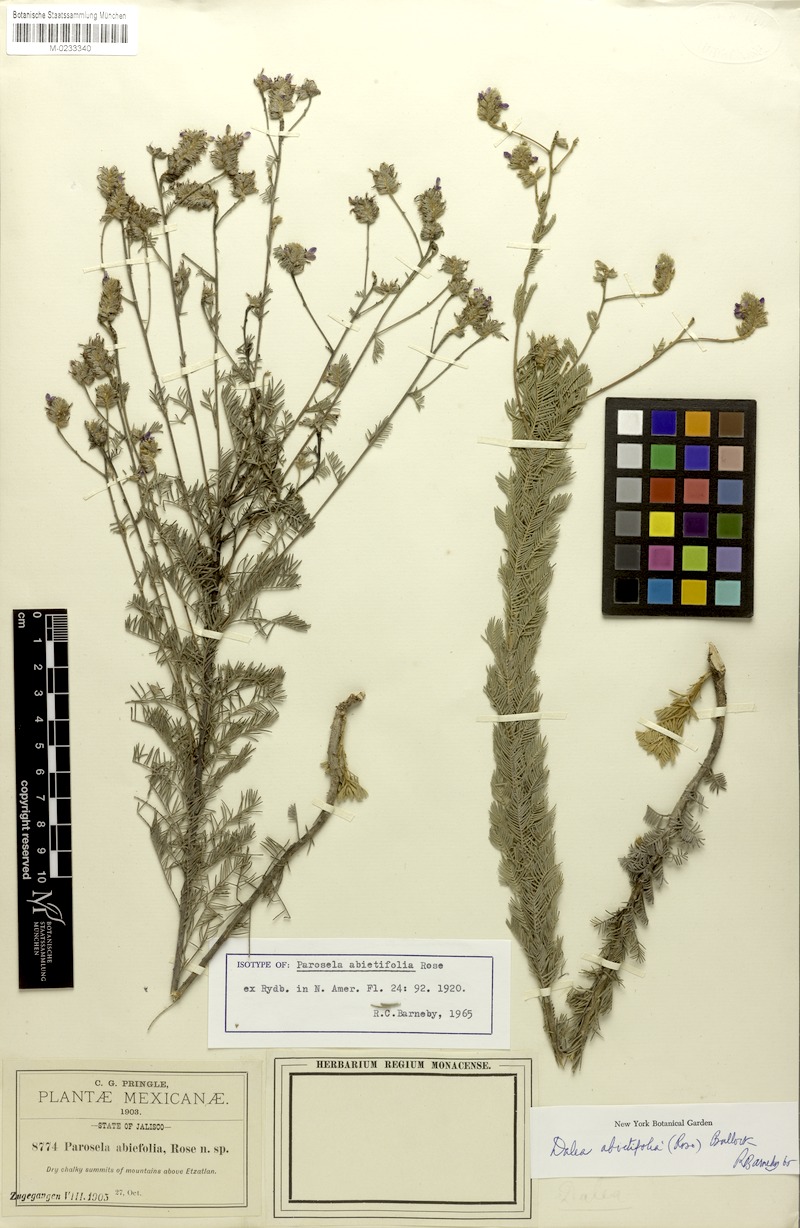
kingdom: Plantae
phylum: Tracheophyta
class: Magnoliopsida
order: Fabales
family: Fabaceae
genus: Dalea
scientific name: Dalea abietifolia
